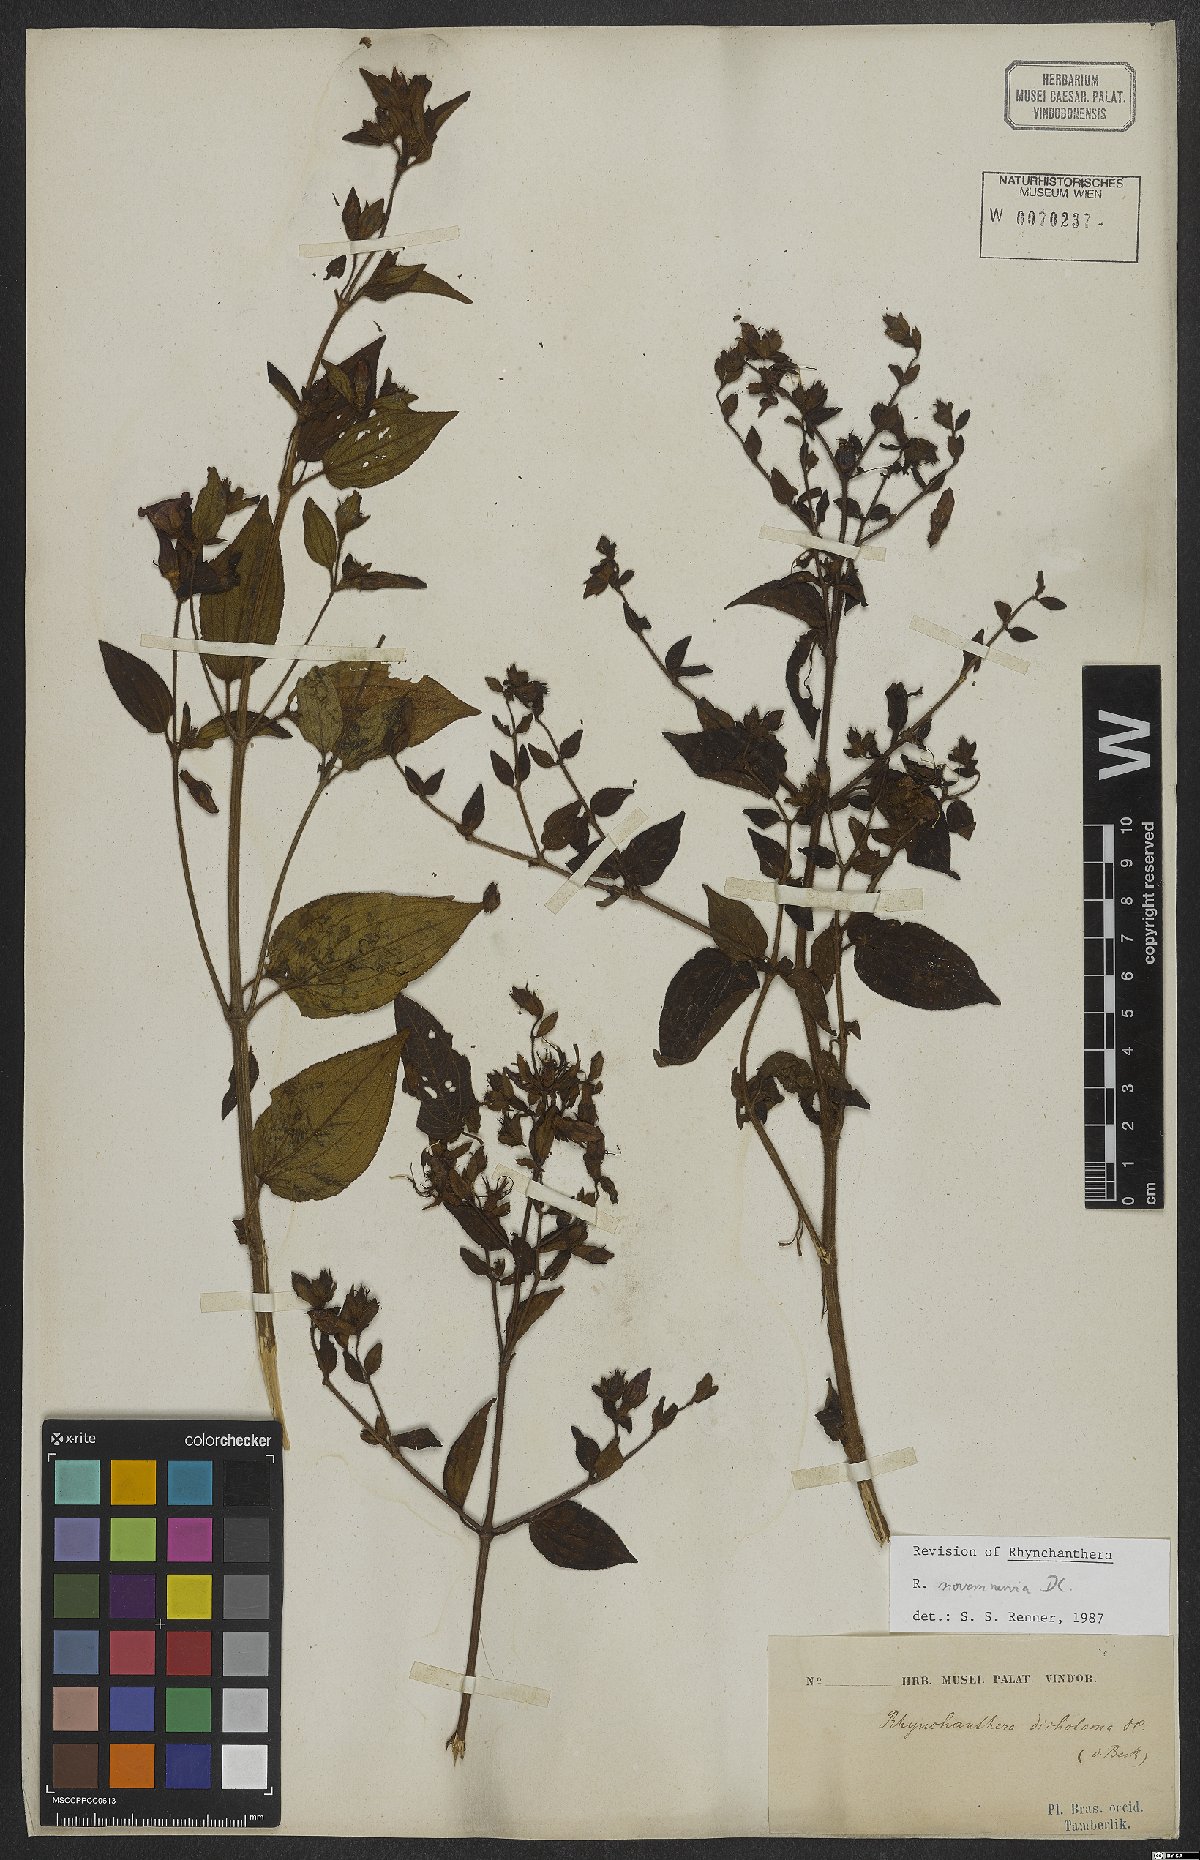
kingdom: Plantae
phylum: Tracheophyta
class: Magnoliopsida
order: Myrtales
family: Melastomataceae
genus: Rhynchanthera
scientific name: Rhynchanthera novemnervia
